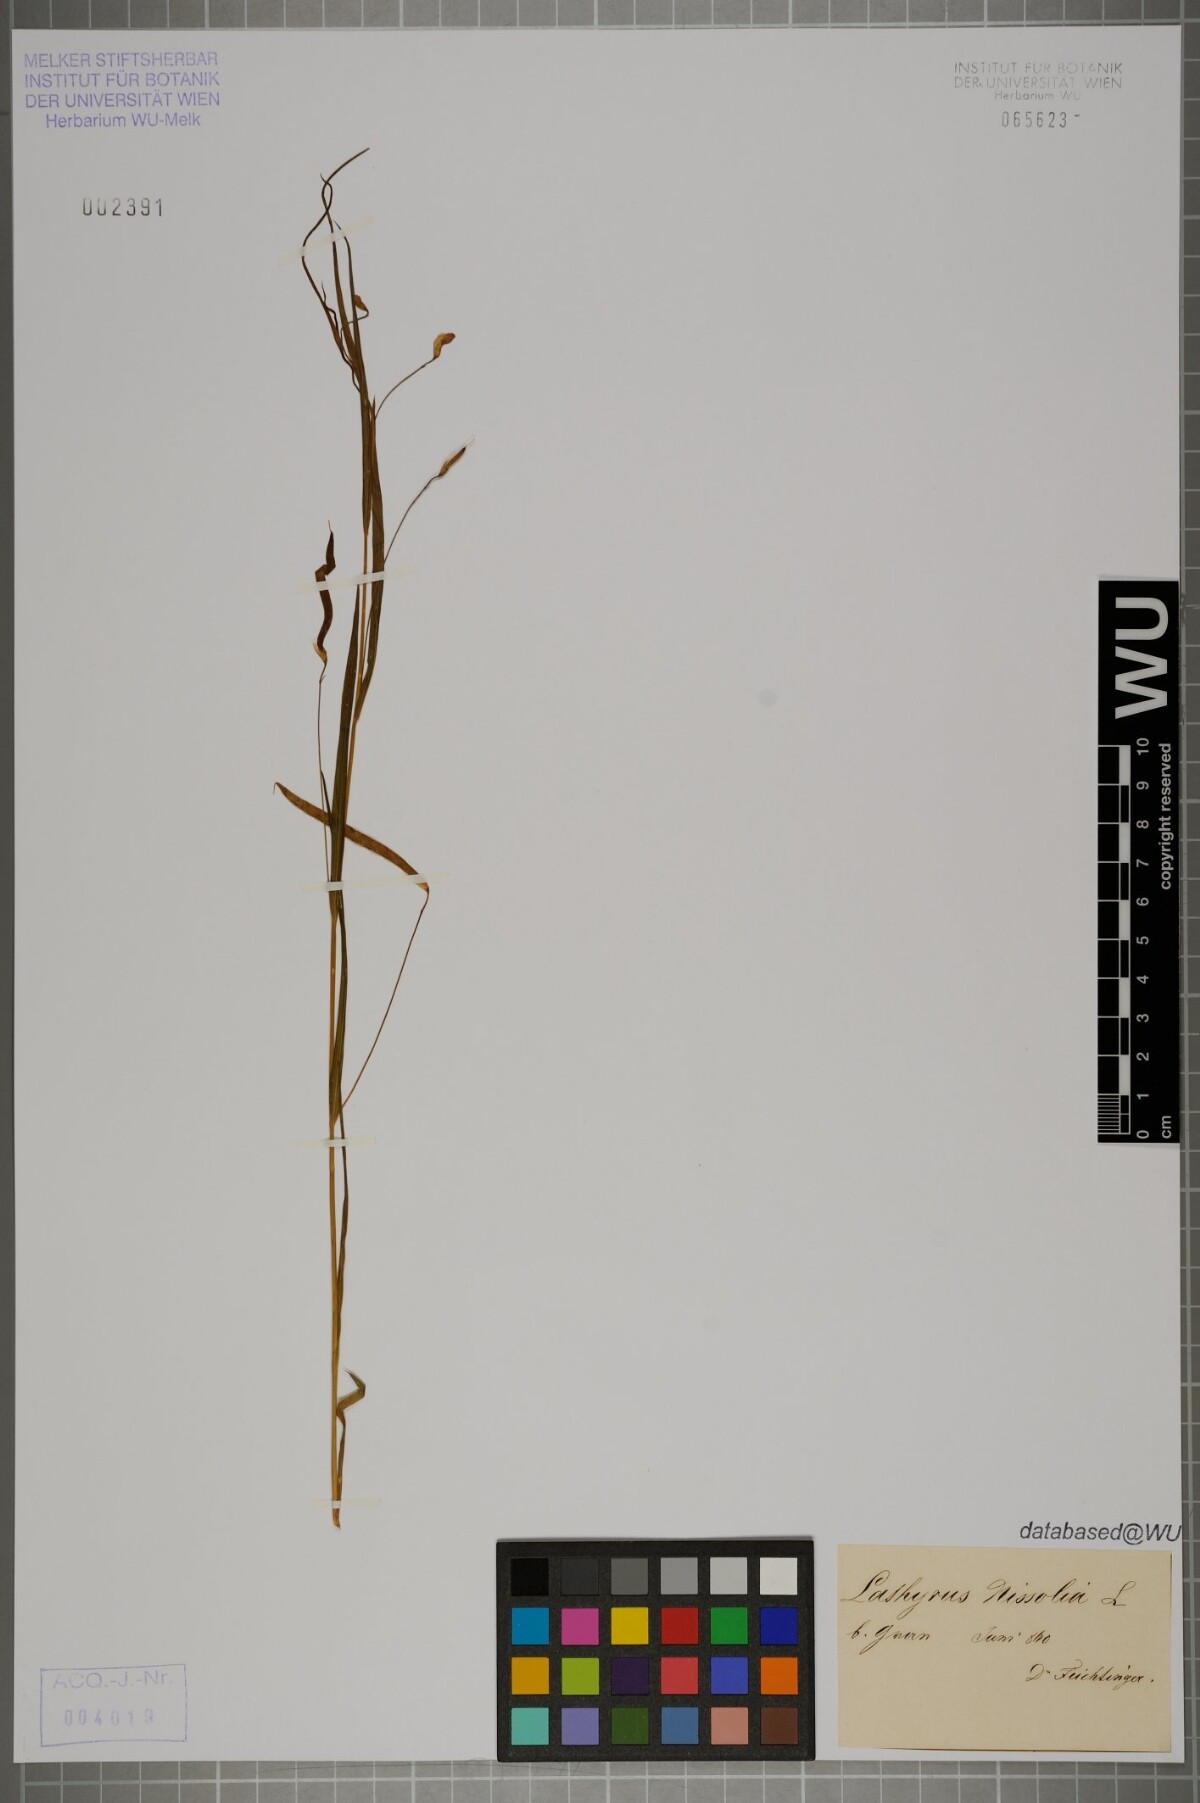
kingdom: Plantae
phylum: Tracheophyta
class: Magnoliopsida
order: Fabales
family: Fabaceae
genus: Lathyrus
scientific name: Lathyrus nissolia
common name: Grass vetchling
